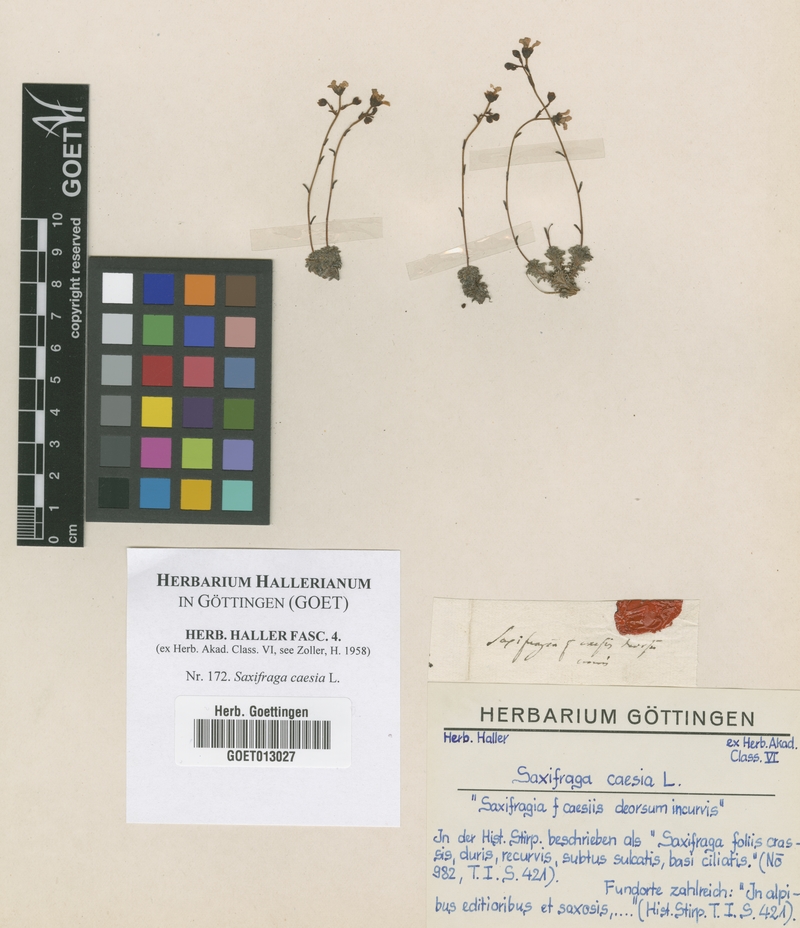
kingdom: Plantae
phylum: Tracheophyta
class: Magnoliopsida
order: Saxifragales
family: Saxifragaceae
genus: Saxifraga
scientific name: Saxifraga caesia
